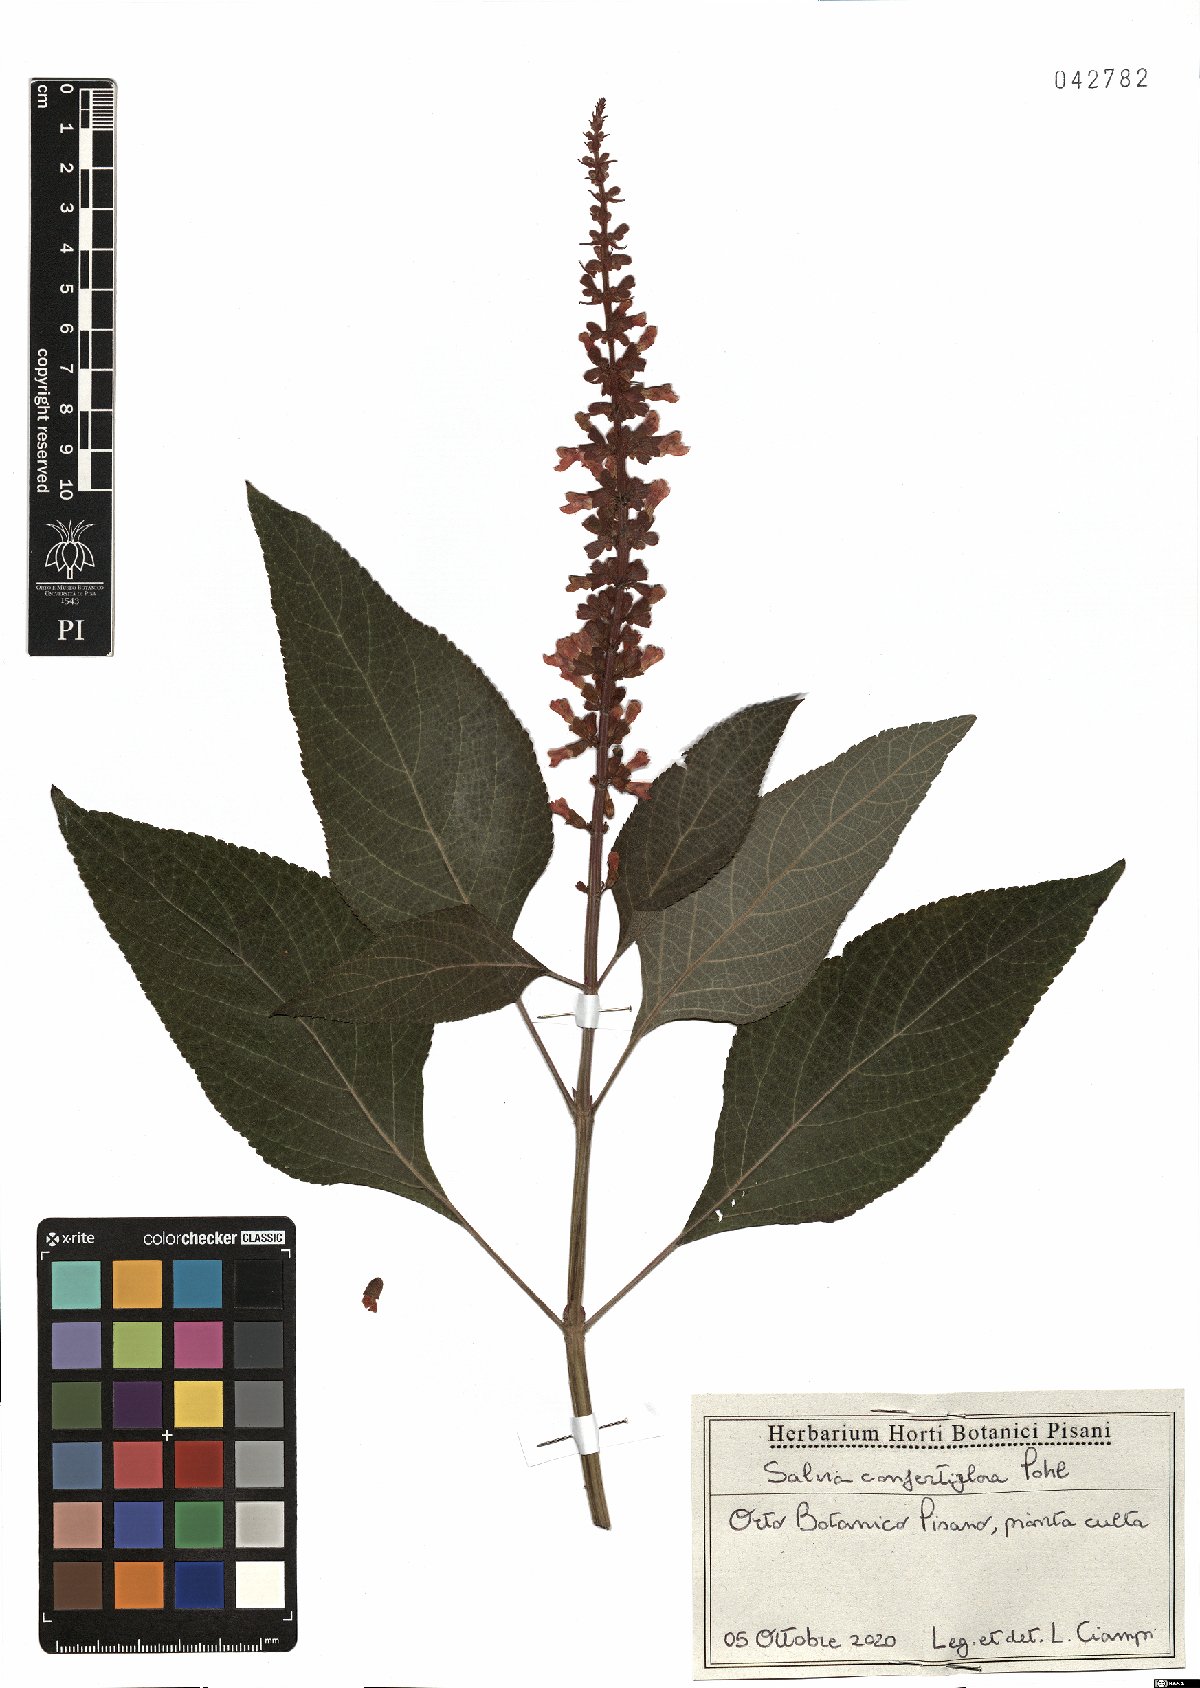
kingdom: Plantae
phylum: Tracheophyta
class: Magnoliopsida
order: Lamiales
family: Lamiaceae
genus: Salvia
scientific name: Salvia confertiflora
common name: Sabra-spike sage
